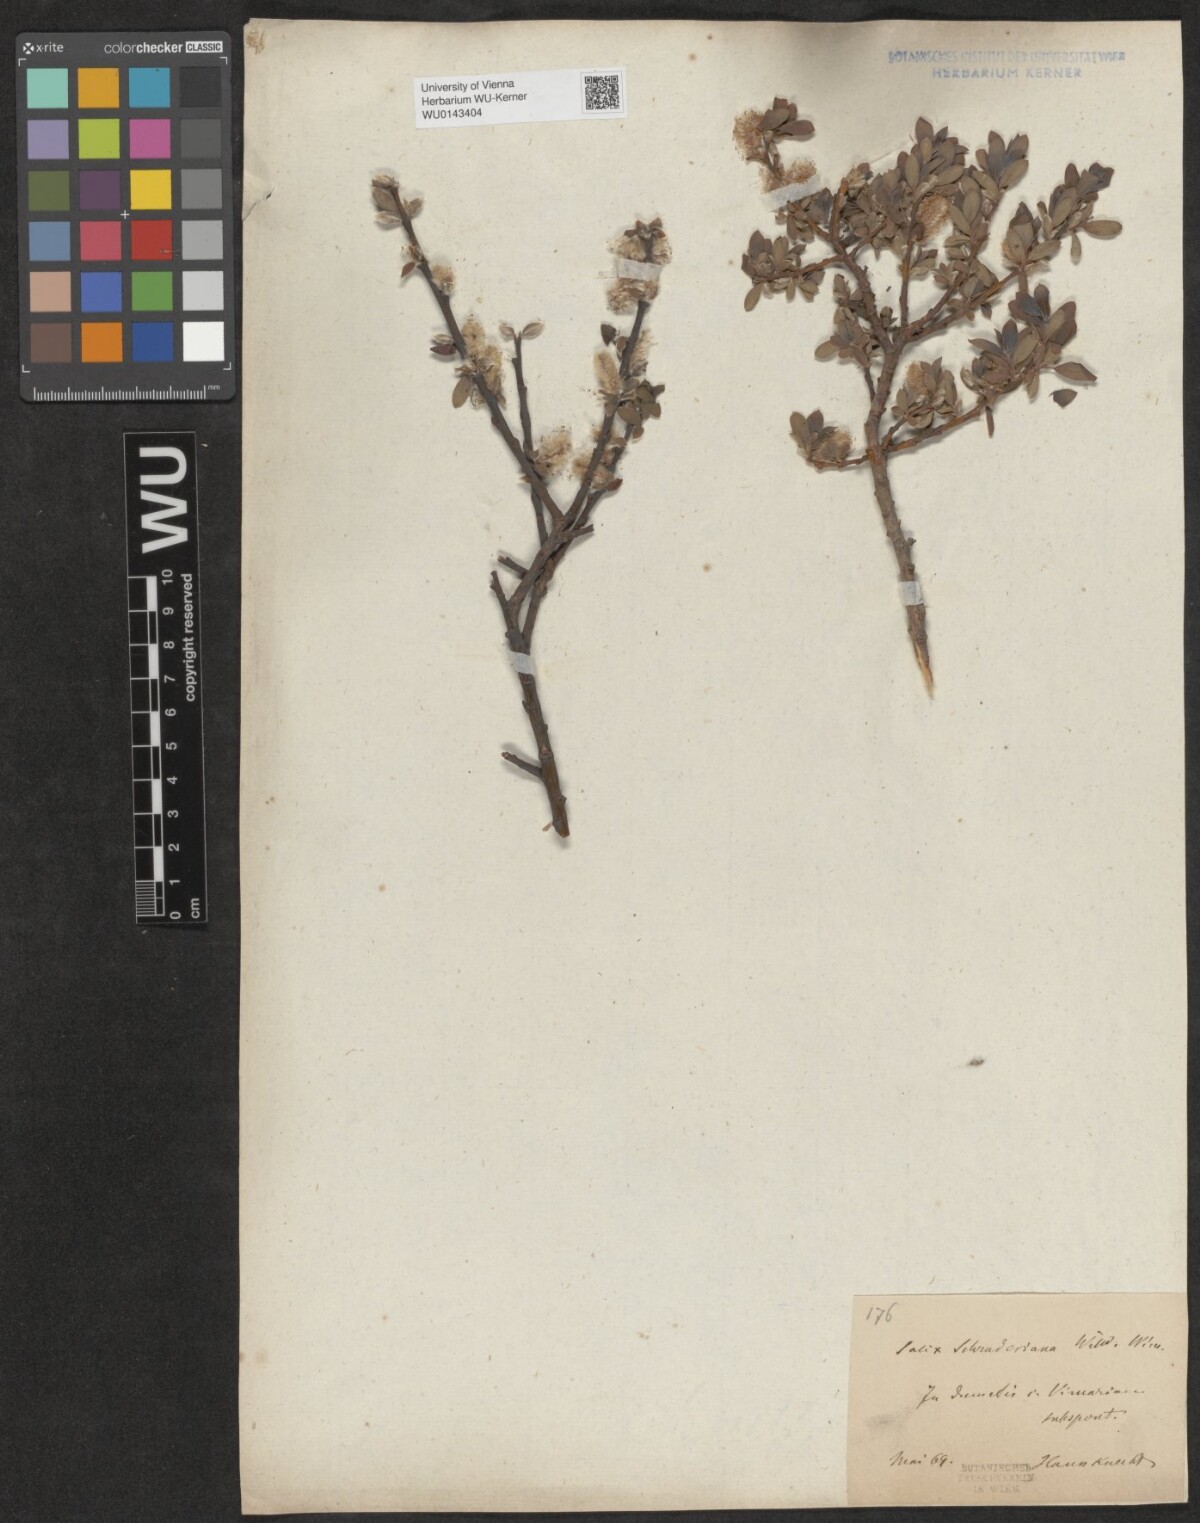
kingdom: Plantae
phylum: Tracheophyta
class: Magnoliopsida
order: Malpighiales
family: Salicaceae
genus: Salix
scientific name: Salix bicolor
